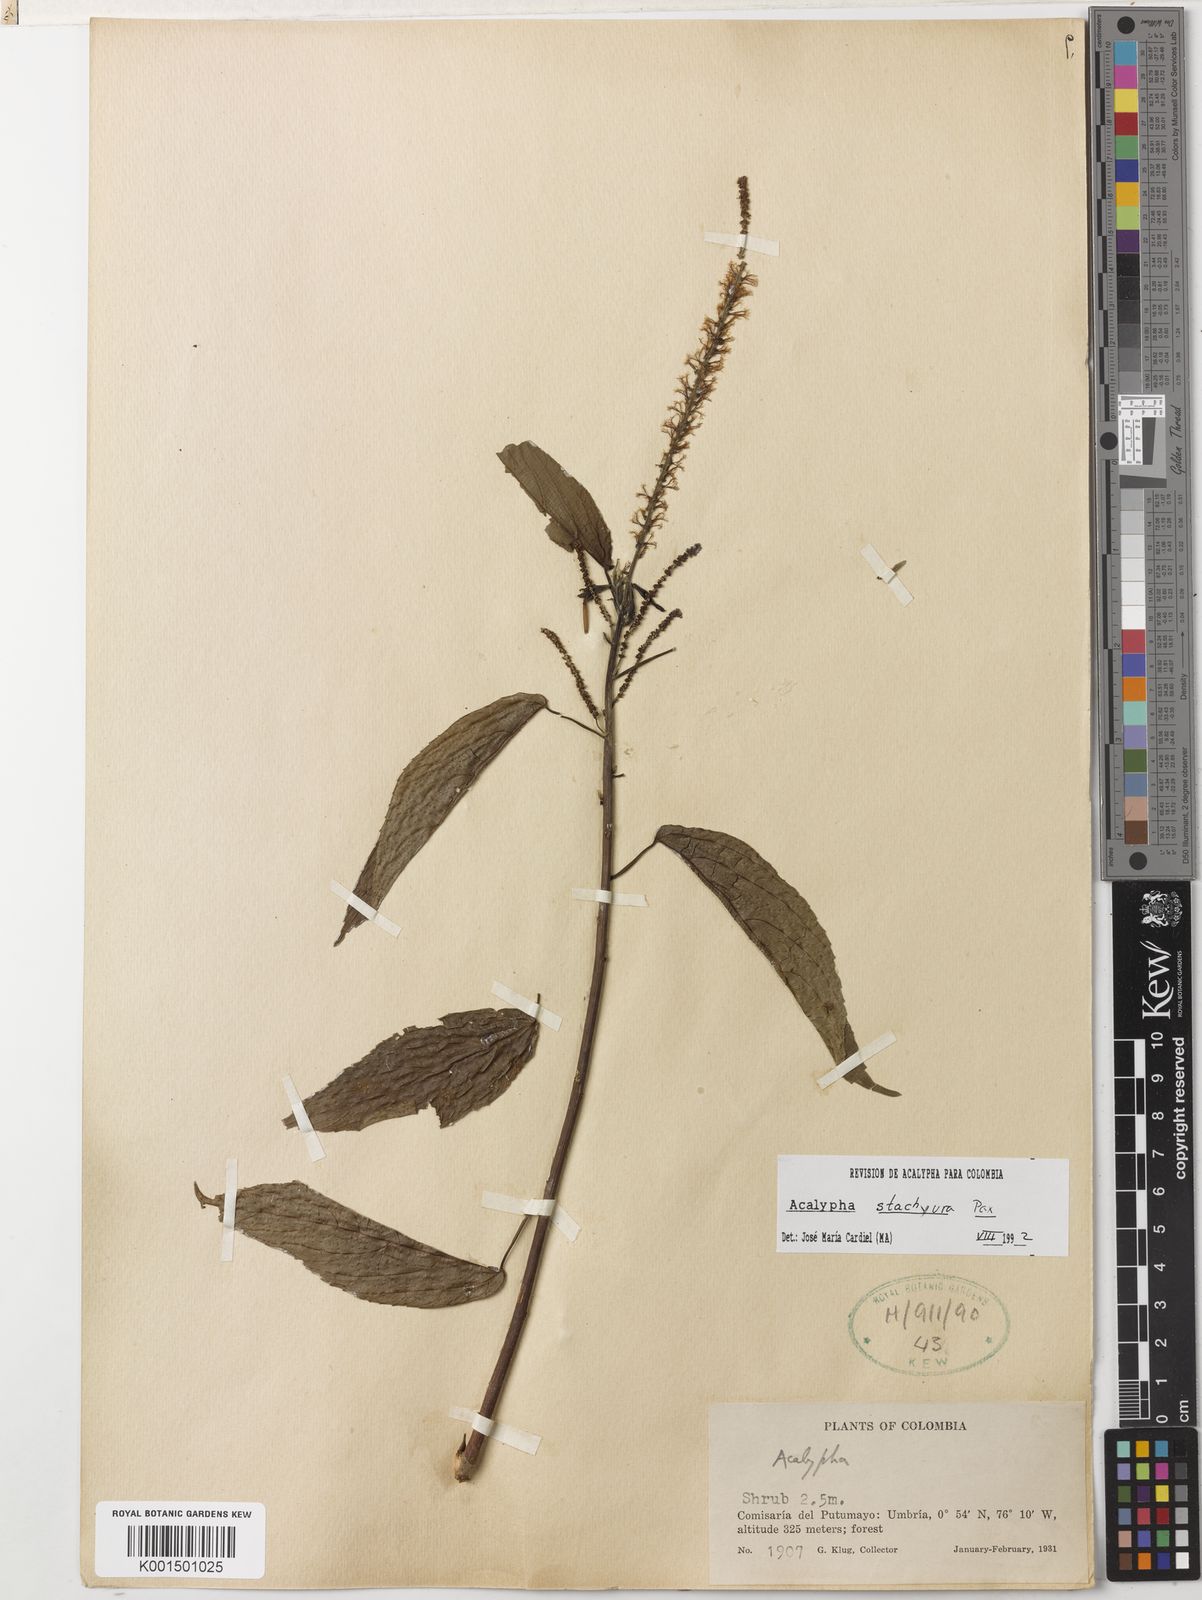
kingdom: Plantae
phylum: Tracheophyta
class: Magnoliopsida
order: Malpighiales
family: Euphorbiaceae
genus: Acalypha
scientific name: Acalypha stachyura
